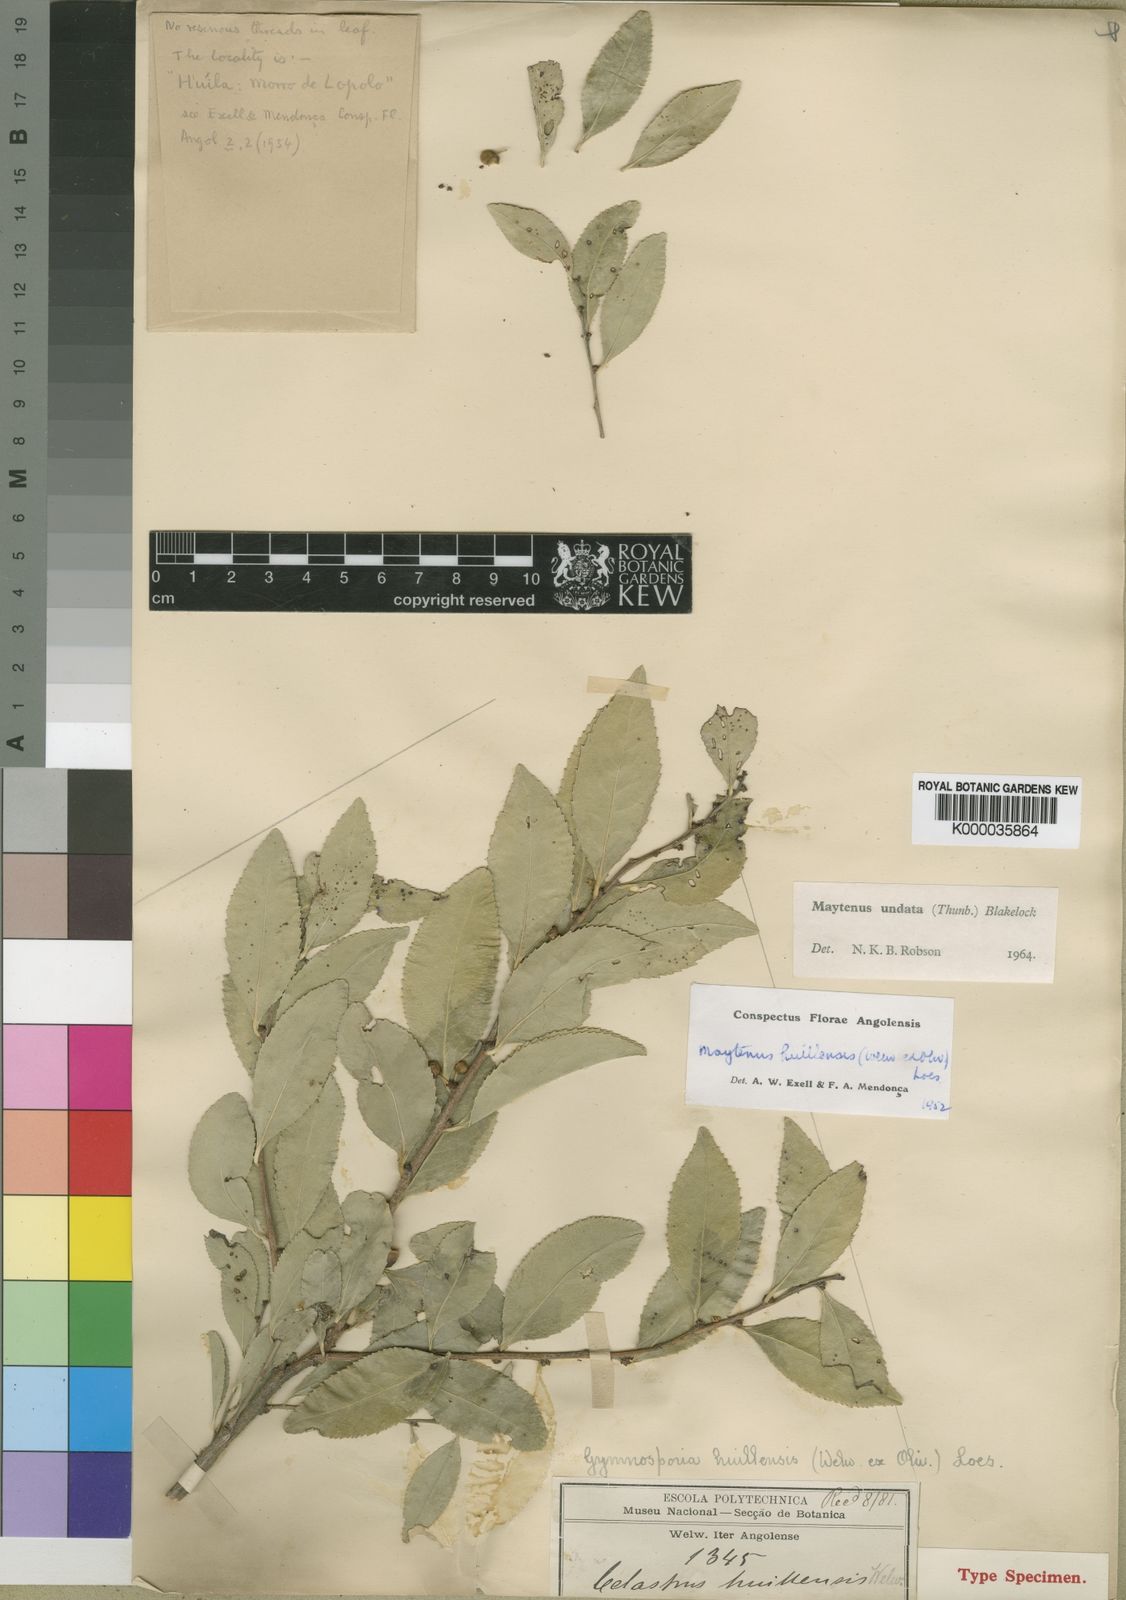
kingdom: Plantae
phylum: Tracheophyta
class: Magnoliopsida
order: Celastrales
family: Celastraceae
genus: Gymnosporia
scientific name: Gymnosporia undata
